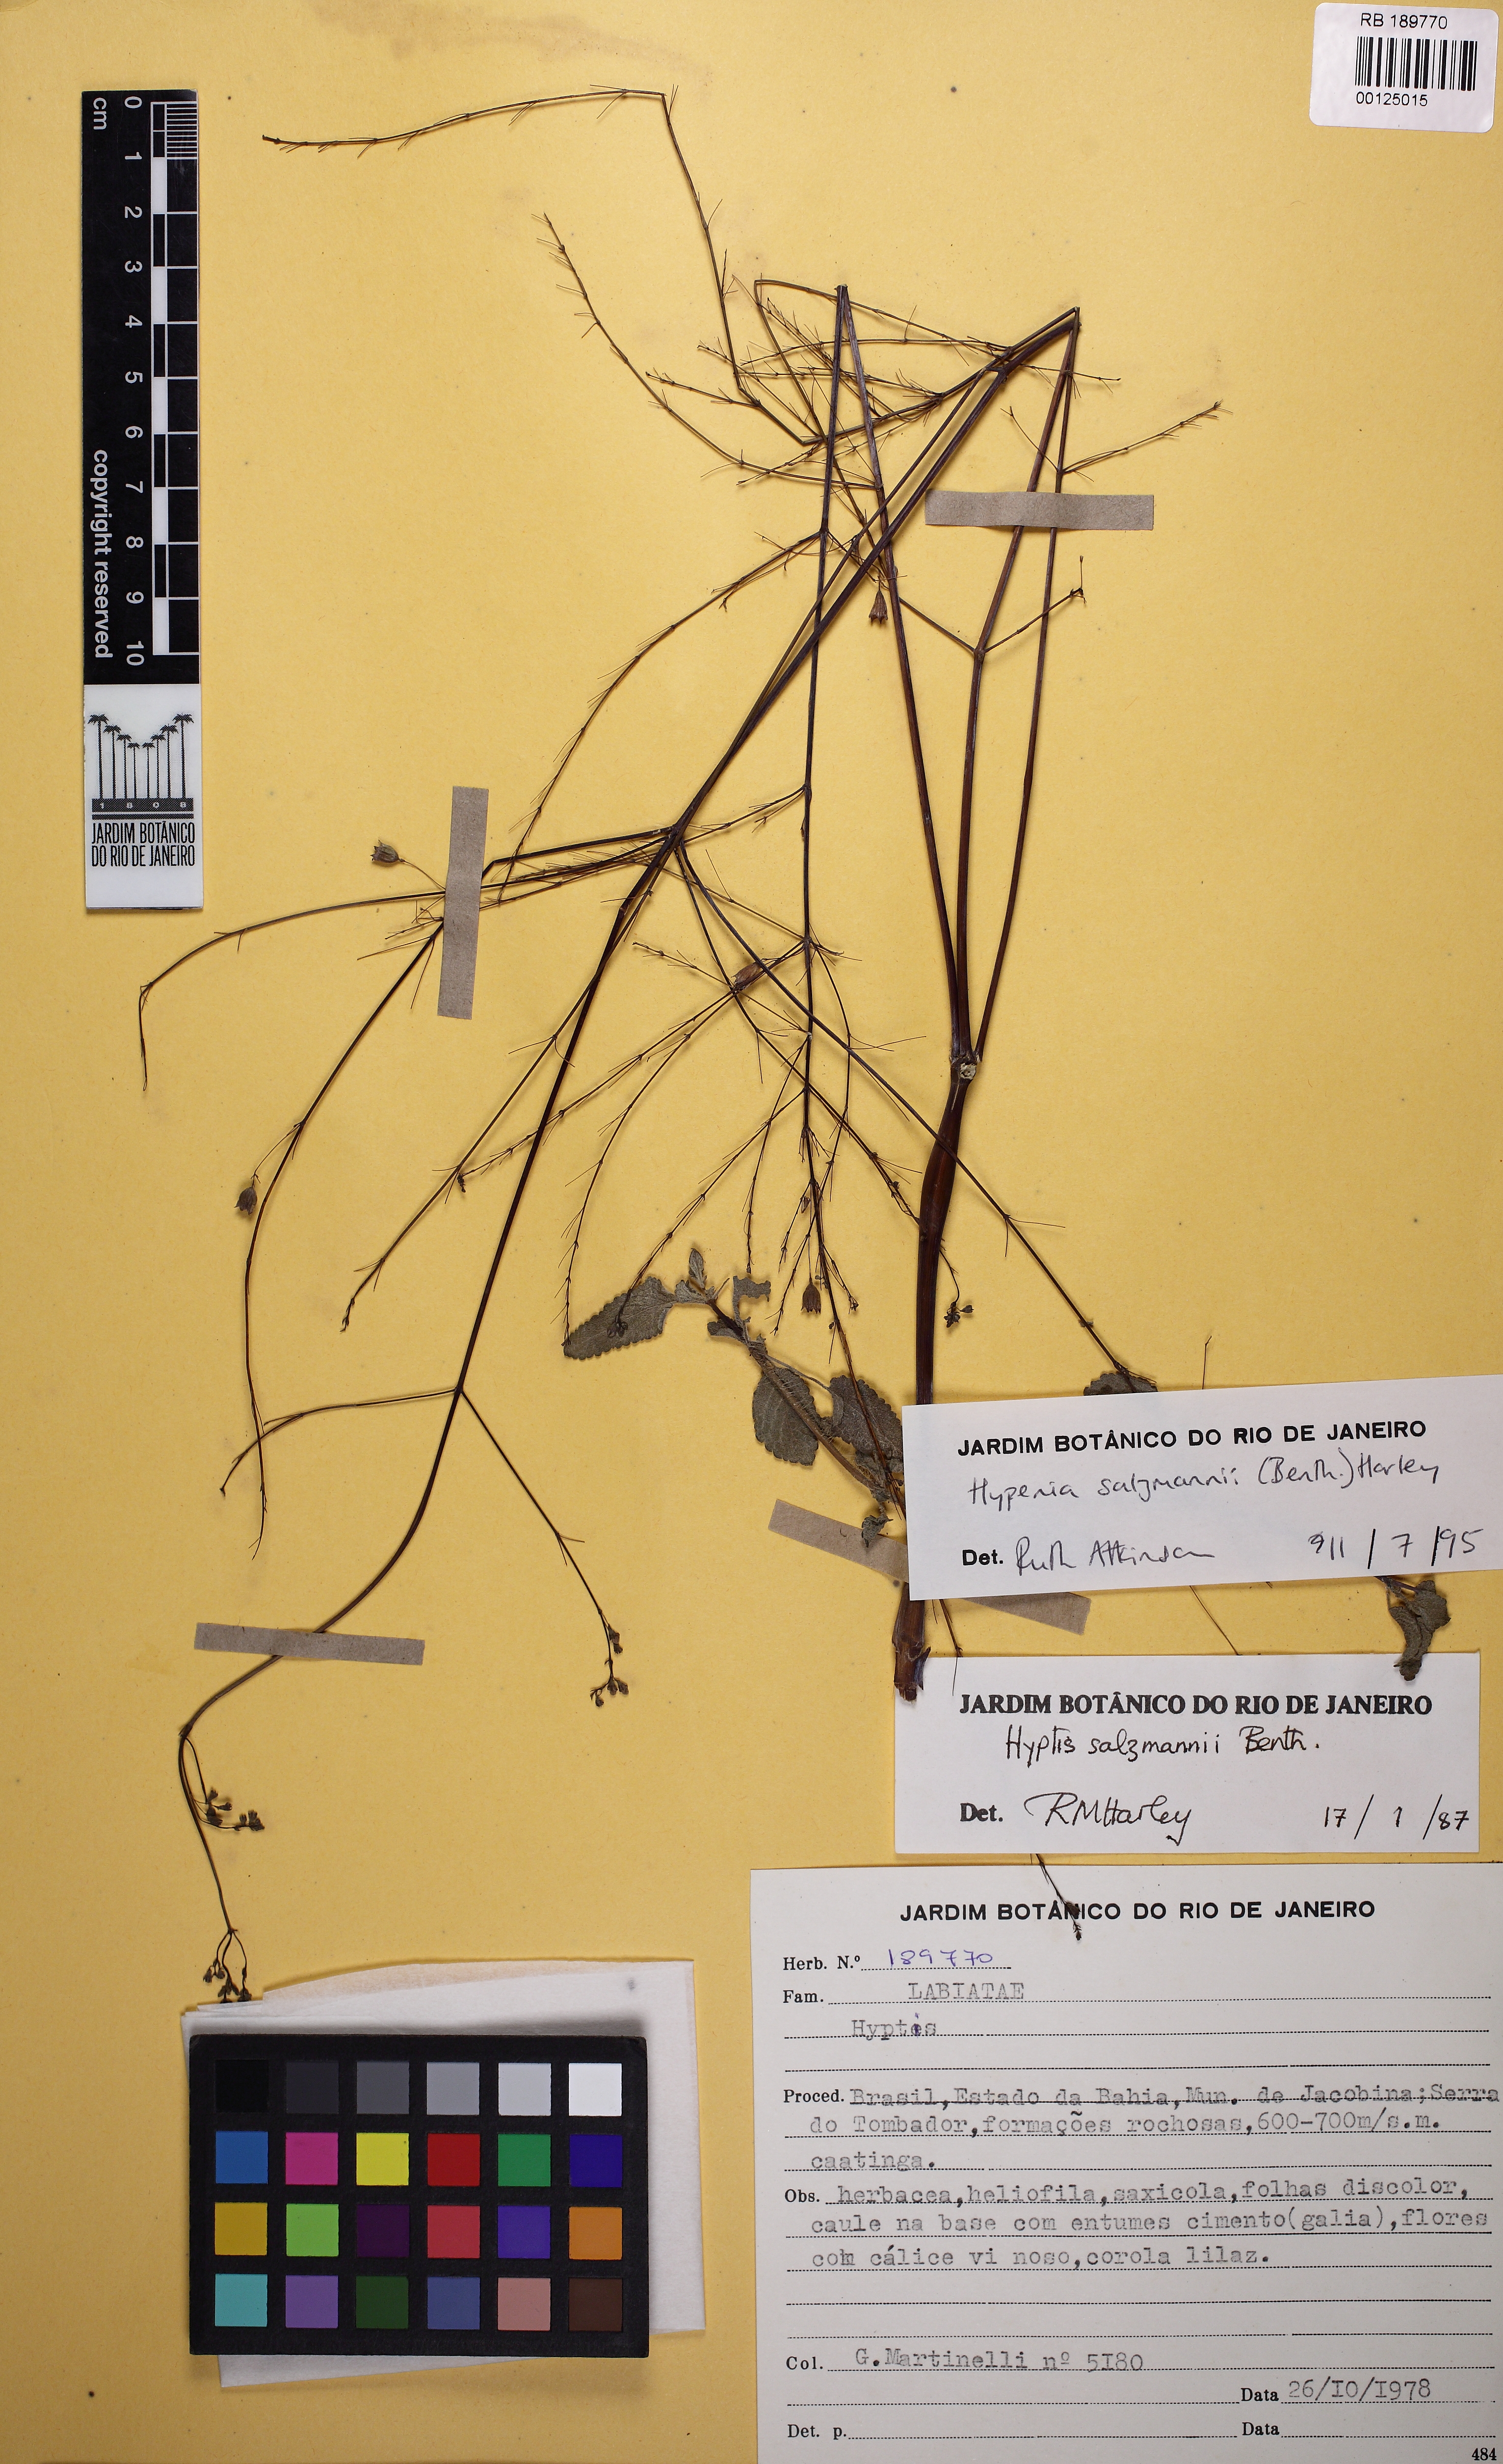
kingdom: Plantae
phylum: Tracheophyta
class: Magnoliopsida
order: Lamiales
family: Lamiaceae
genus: Hypenia
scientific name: Hypenia salzmannii
